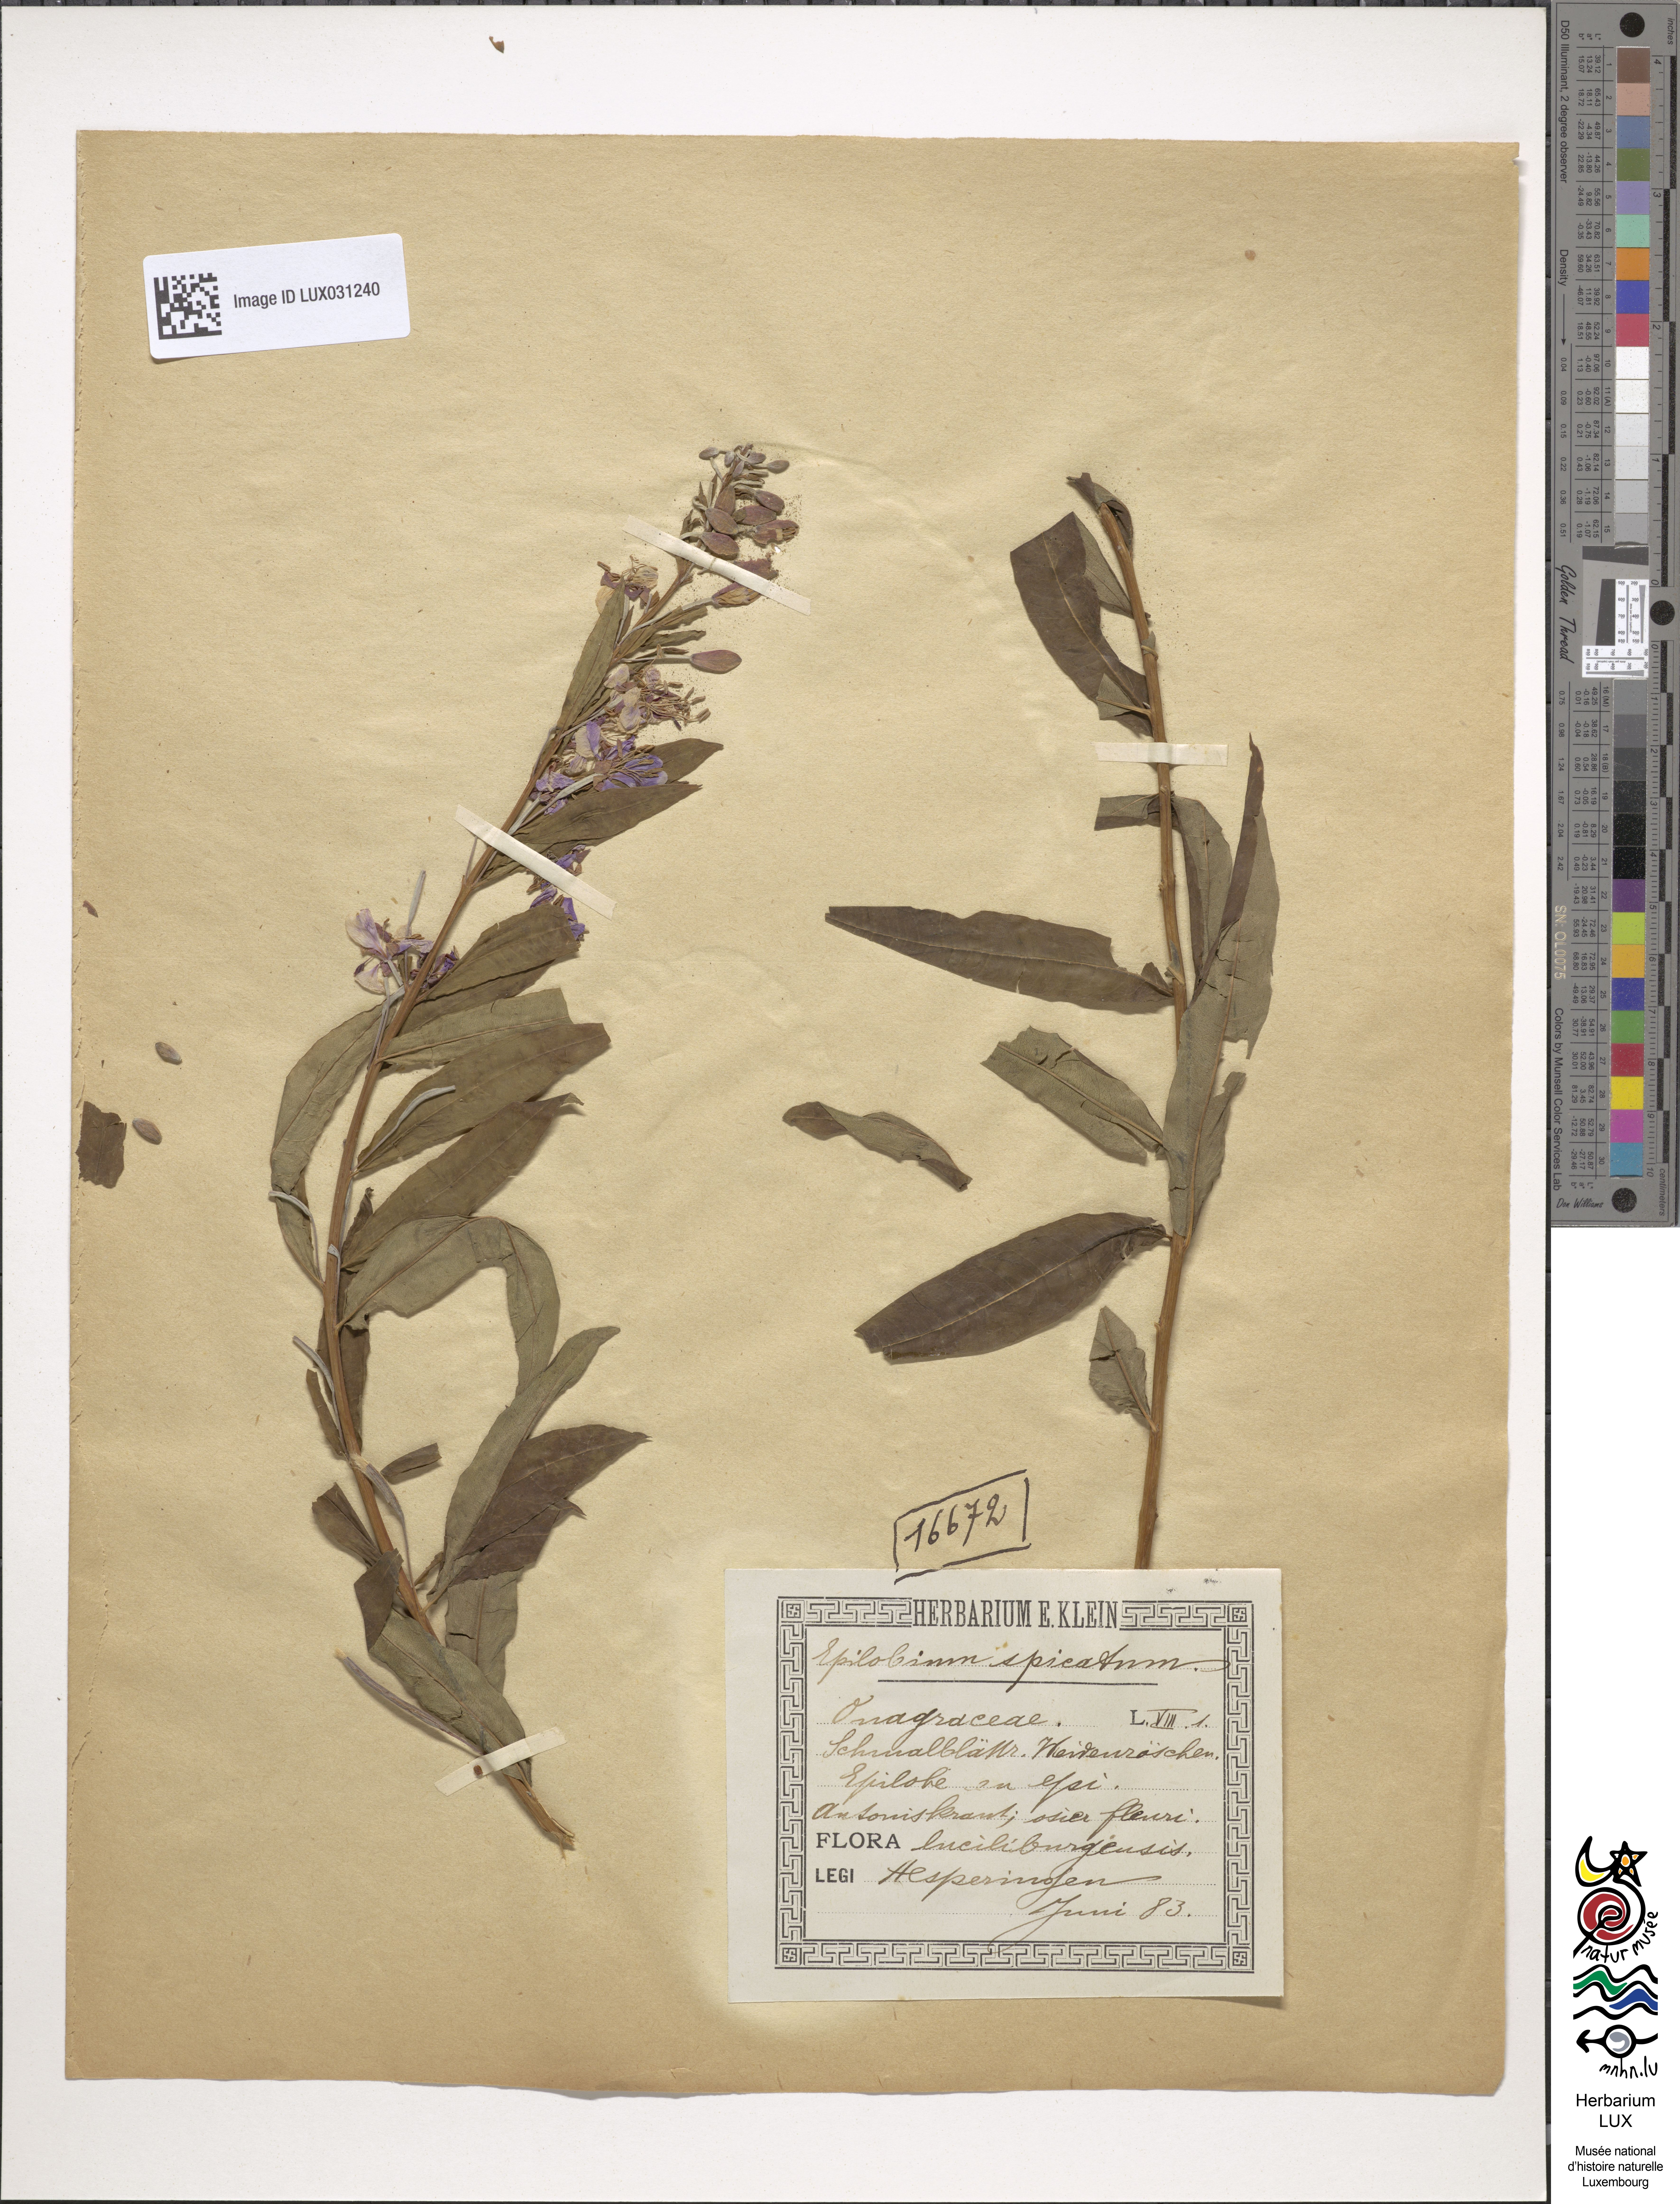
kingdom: Plantae
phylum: Tracheophyta
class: Magnoliopsida
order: Myrtales
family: Onagraceae
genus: Chamaenerion
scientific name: Chamaenerion angustifolium
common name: Fireweed
